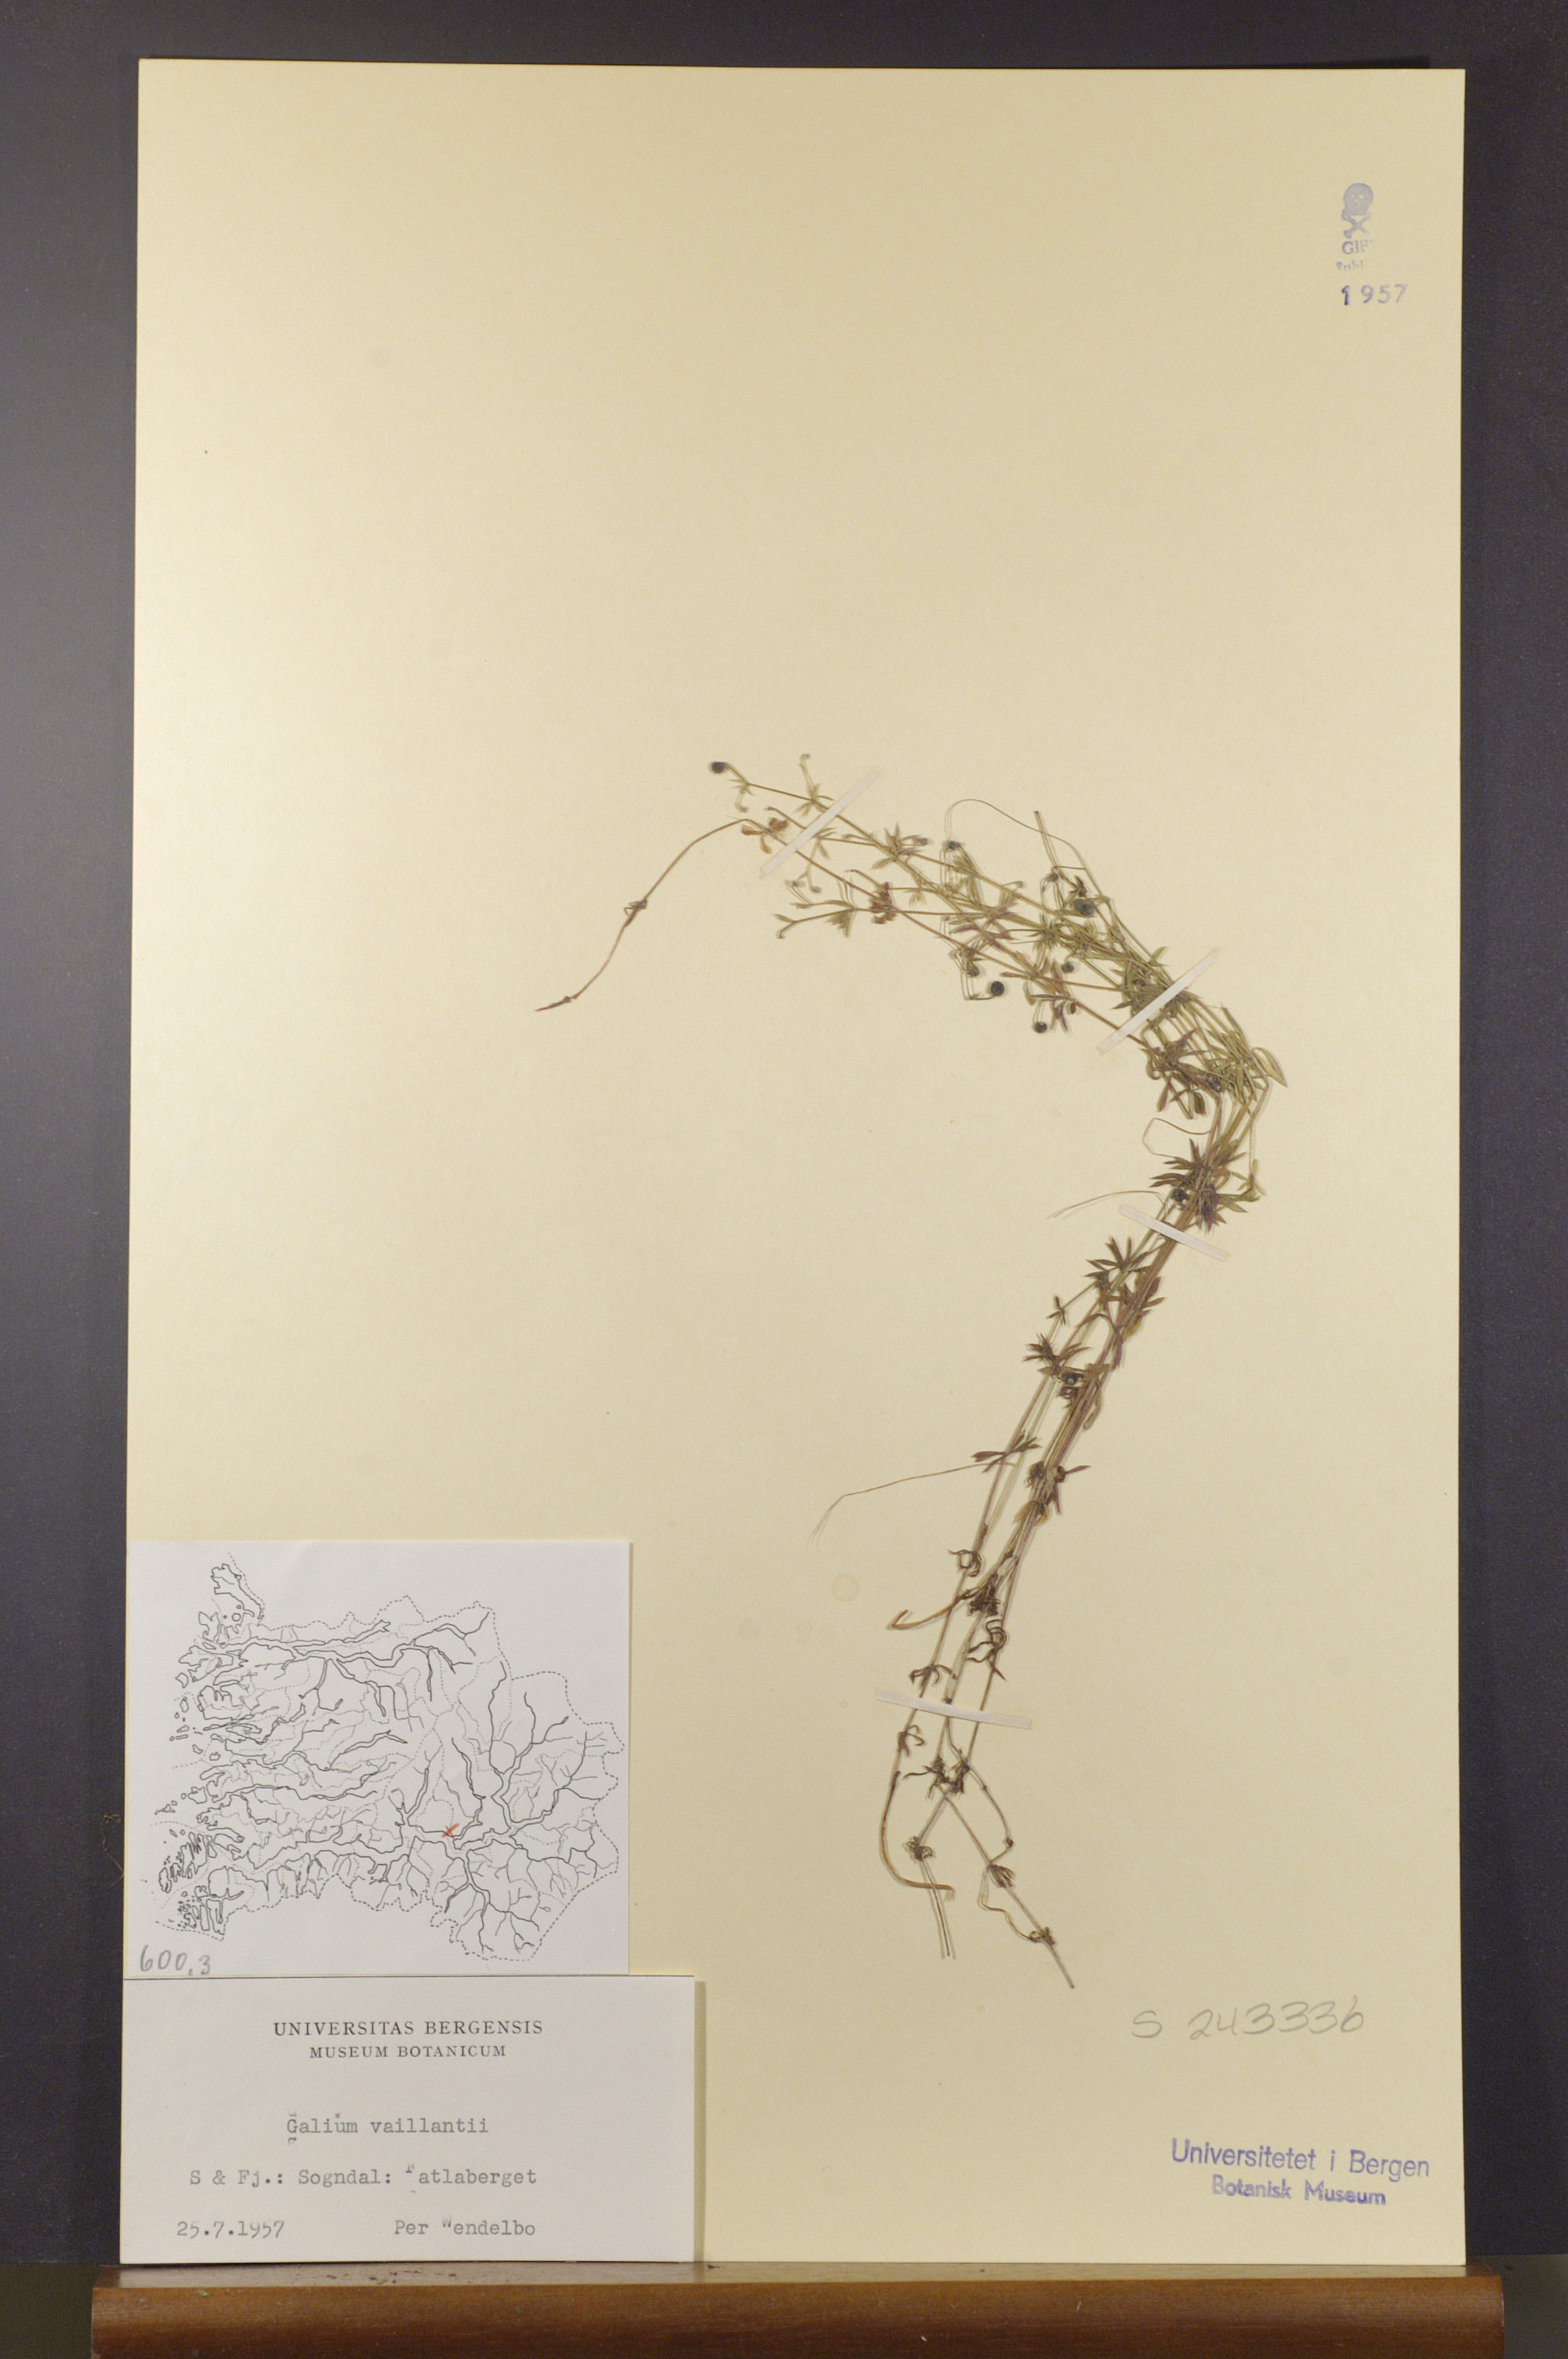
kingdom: Plantae
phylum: Tracheophyta
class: Magnoliopsida
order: Gentianales
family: Rubiaceae
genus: Galium
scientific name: Galium spurium
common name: False cleavers
